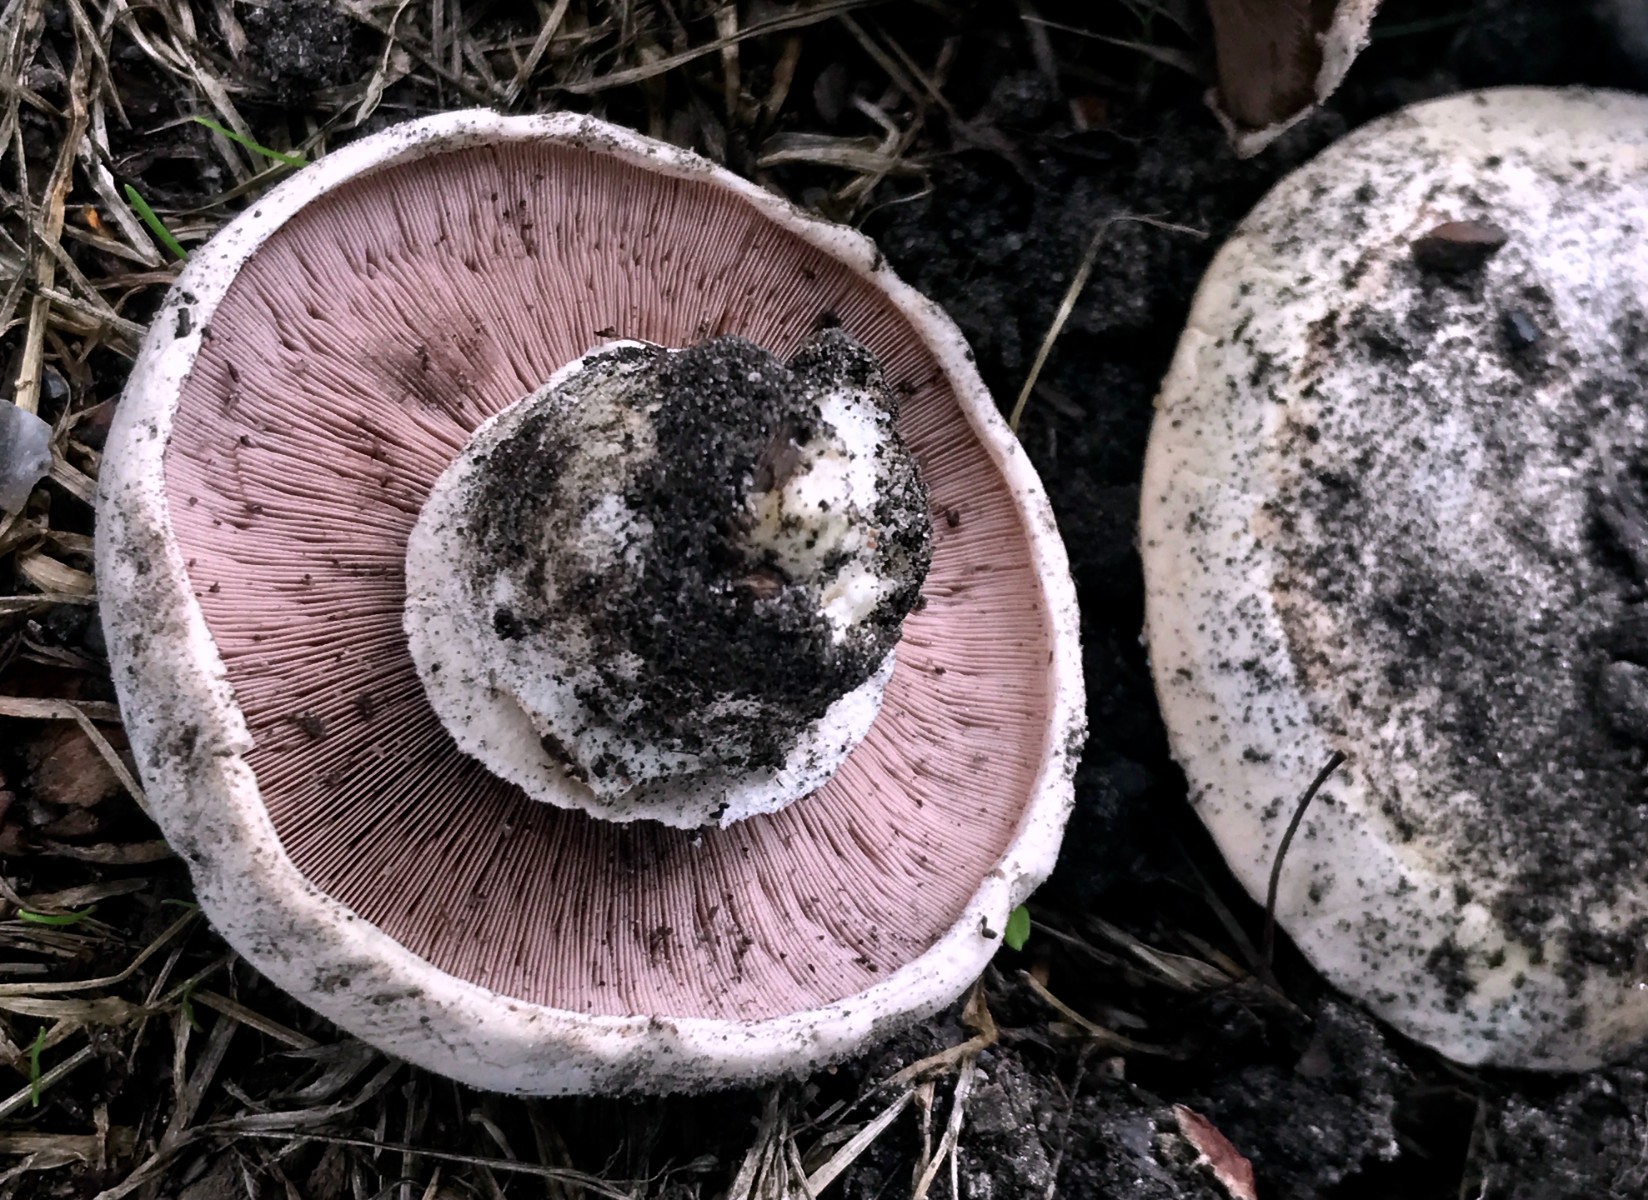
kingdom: Fungi
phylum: Basidiomycota
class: Agaricomycetes
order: Agaricales
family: Agaricaceae
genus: Agaricus
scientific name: Agaricus bitorquis
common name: vej-champignon
